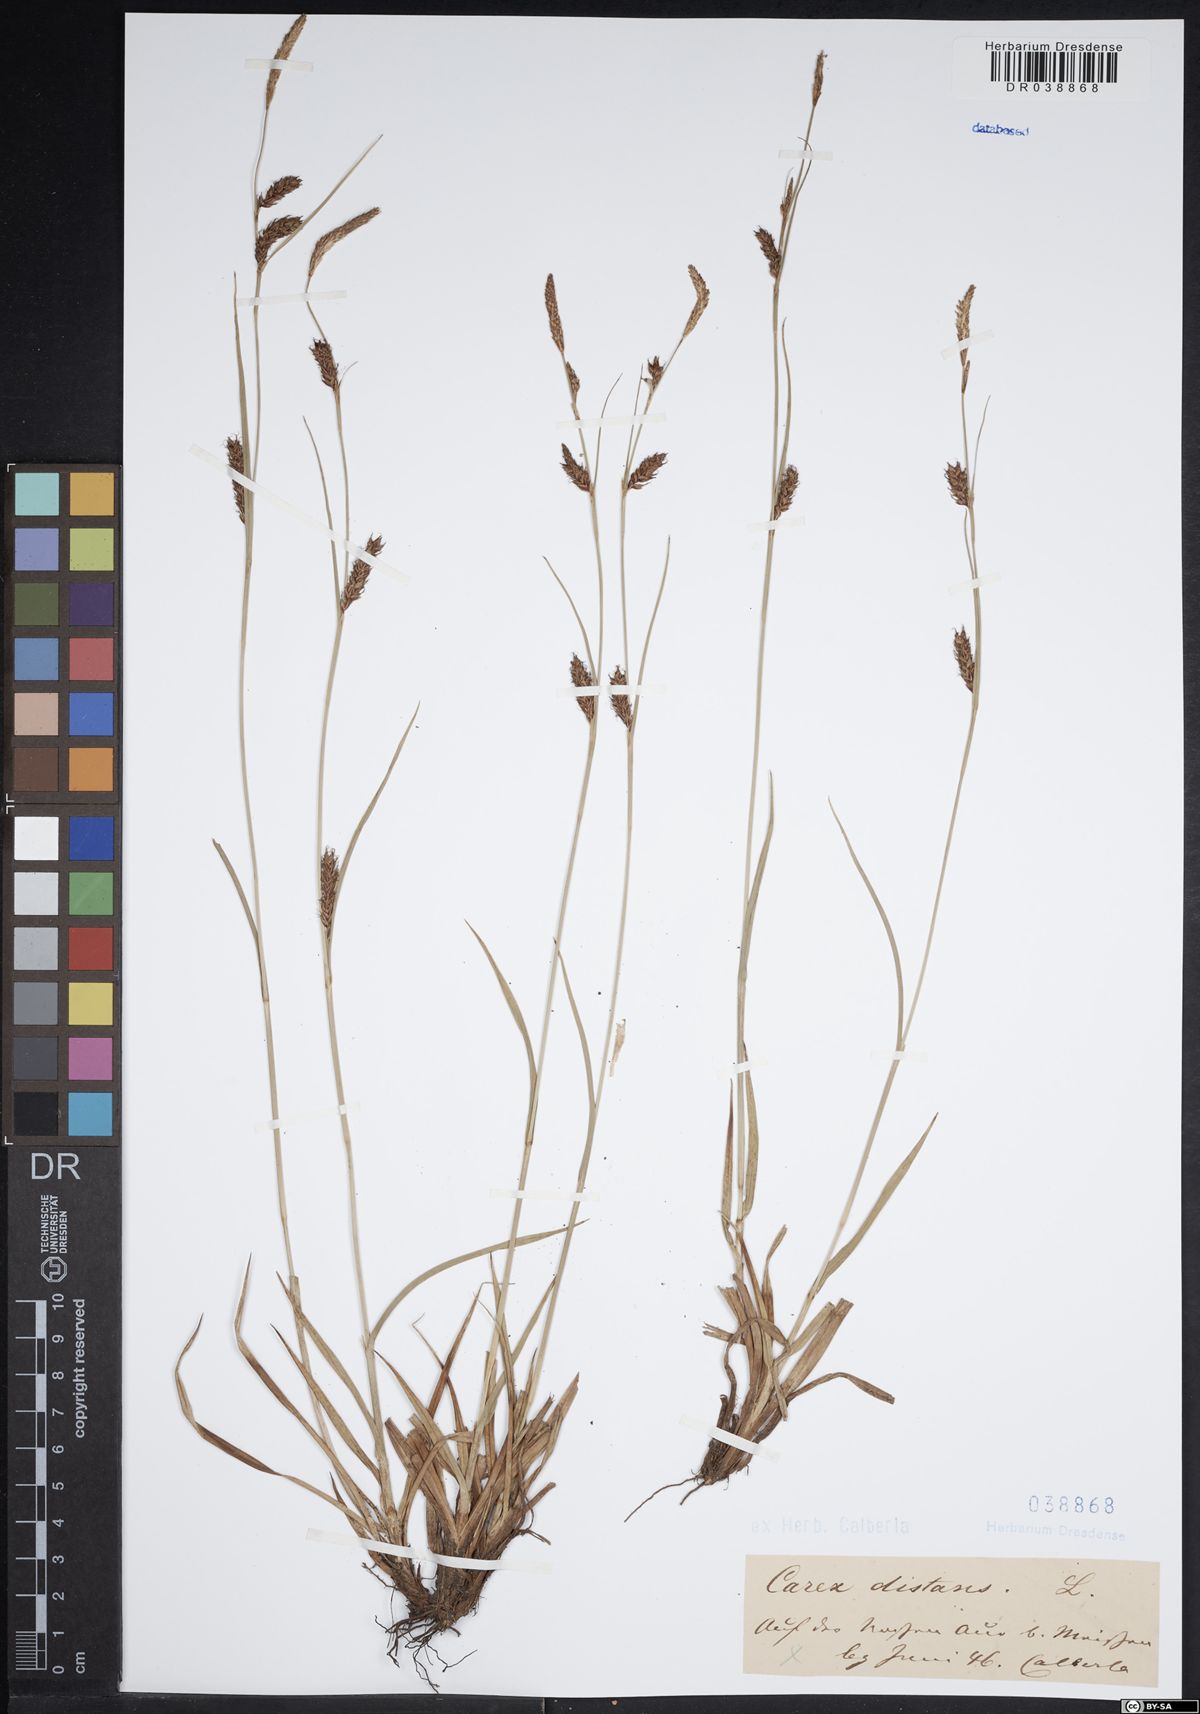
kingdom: Plantae
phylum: Tracheophyta
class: Liliopsida
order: Poales
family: Cyperaceae
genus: Carex
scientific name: Carex distans
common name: Distant sedge
